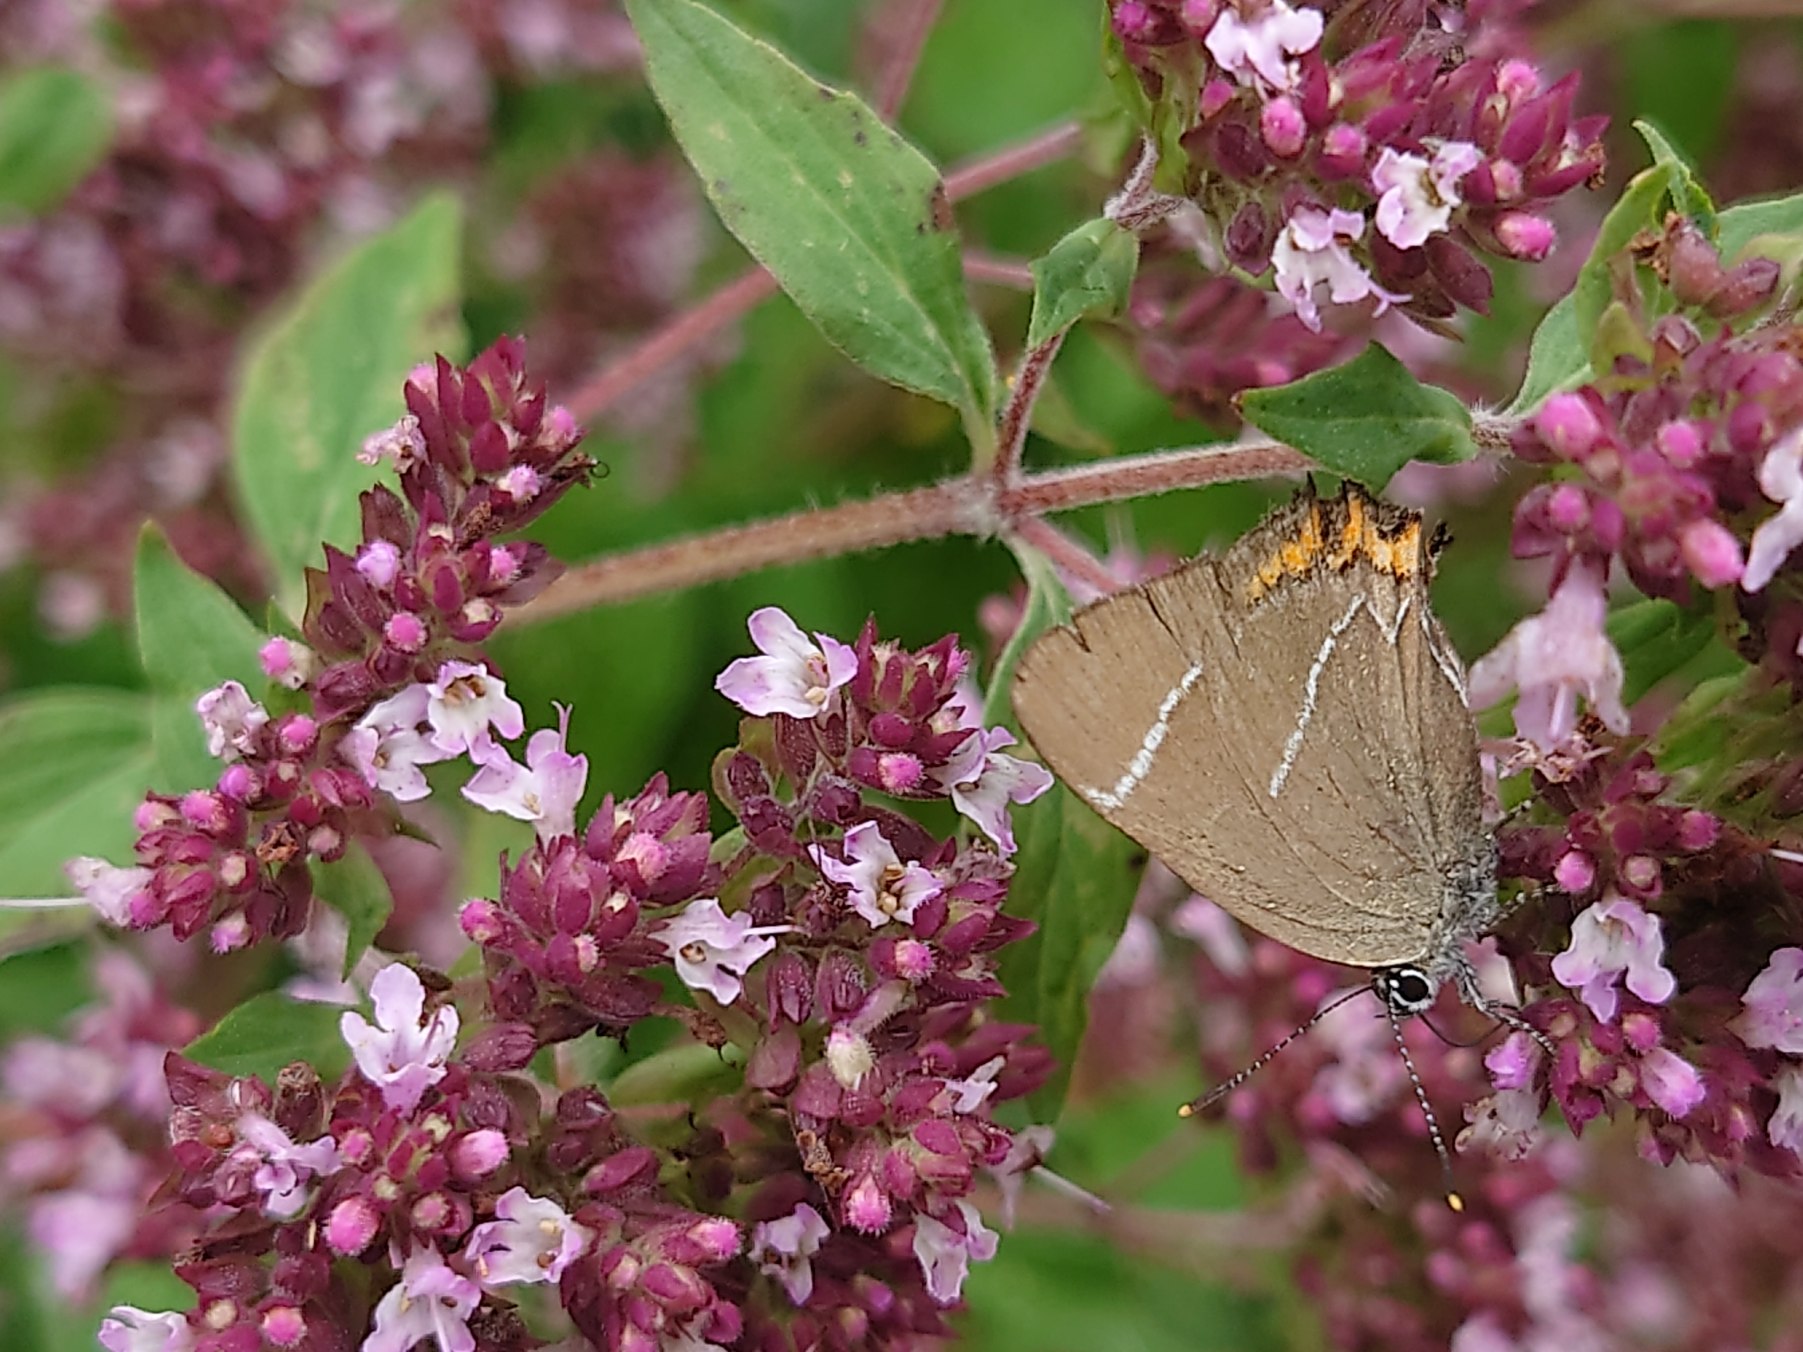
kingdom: Animalia
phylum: Arthropoda
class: Insecta
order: Lepidoptera
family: Lycaenidae
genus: Satyrium
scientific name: Satyrium w-album
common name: Det hvide W
